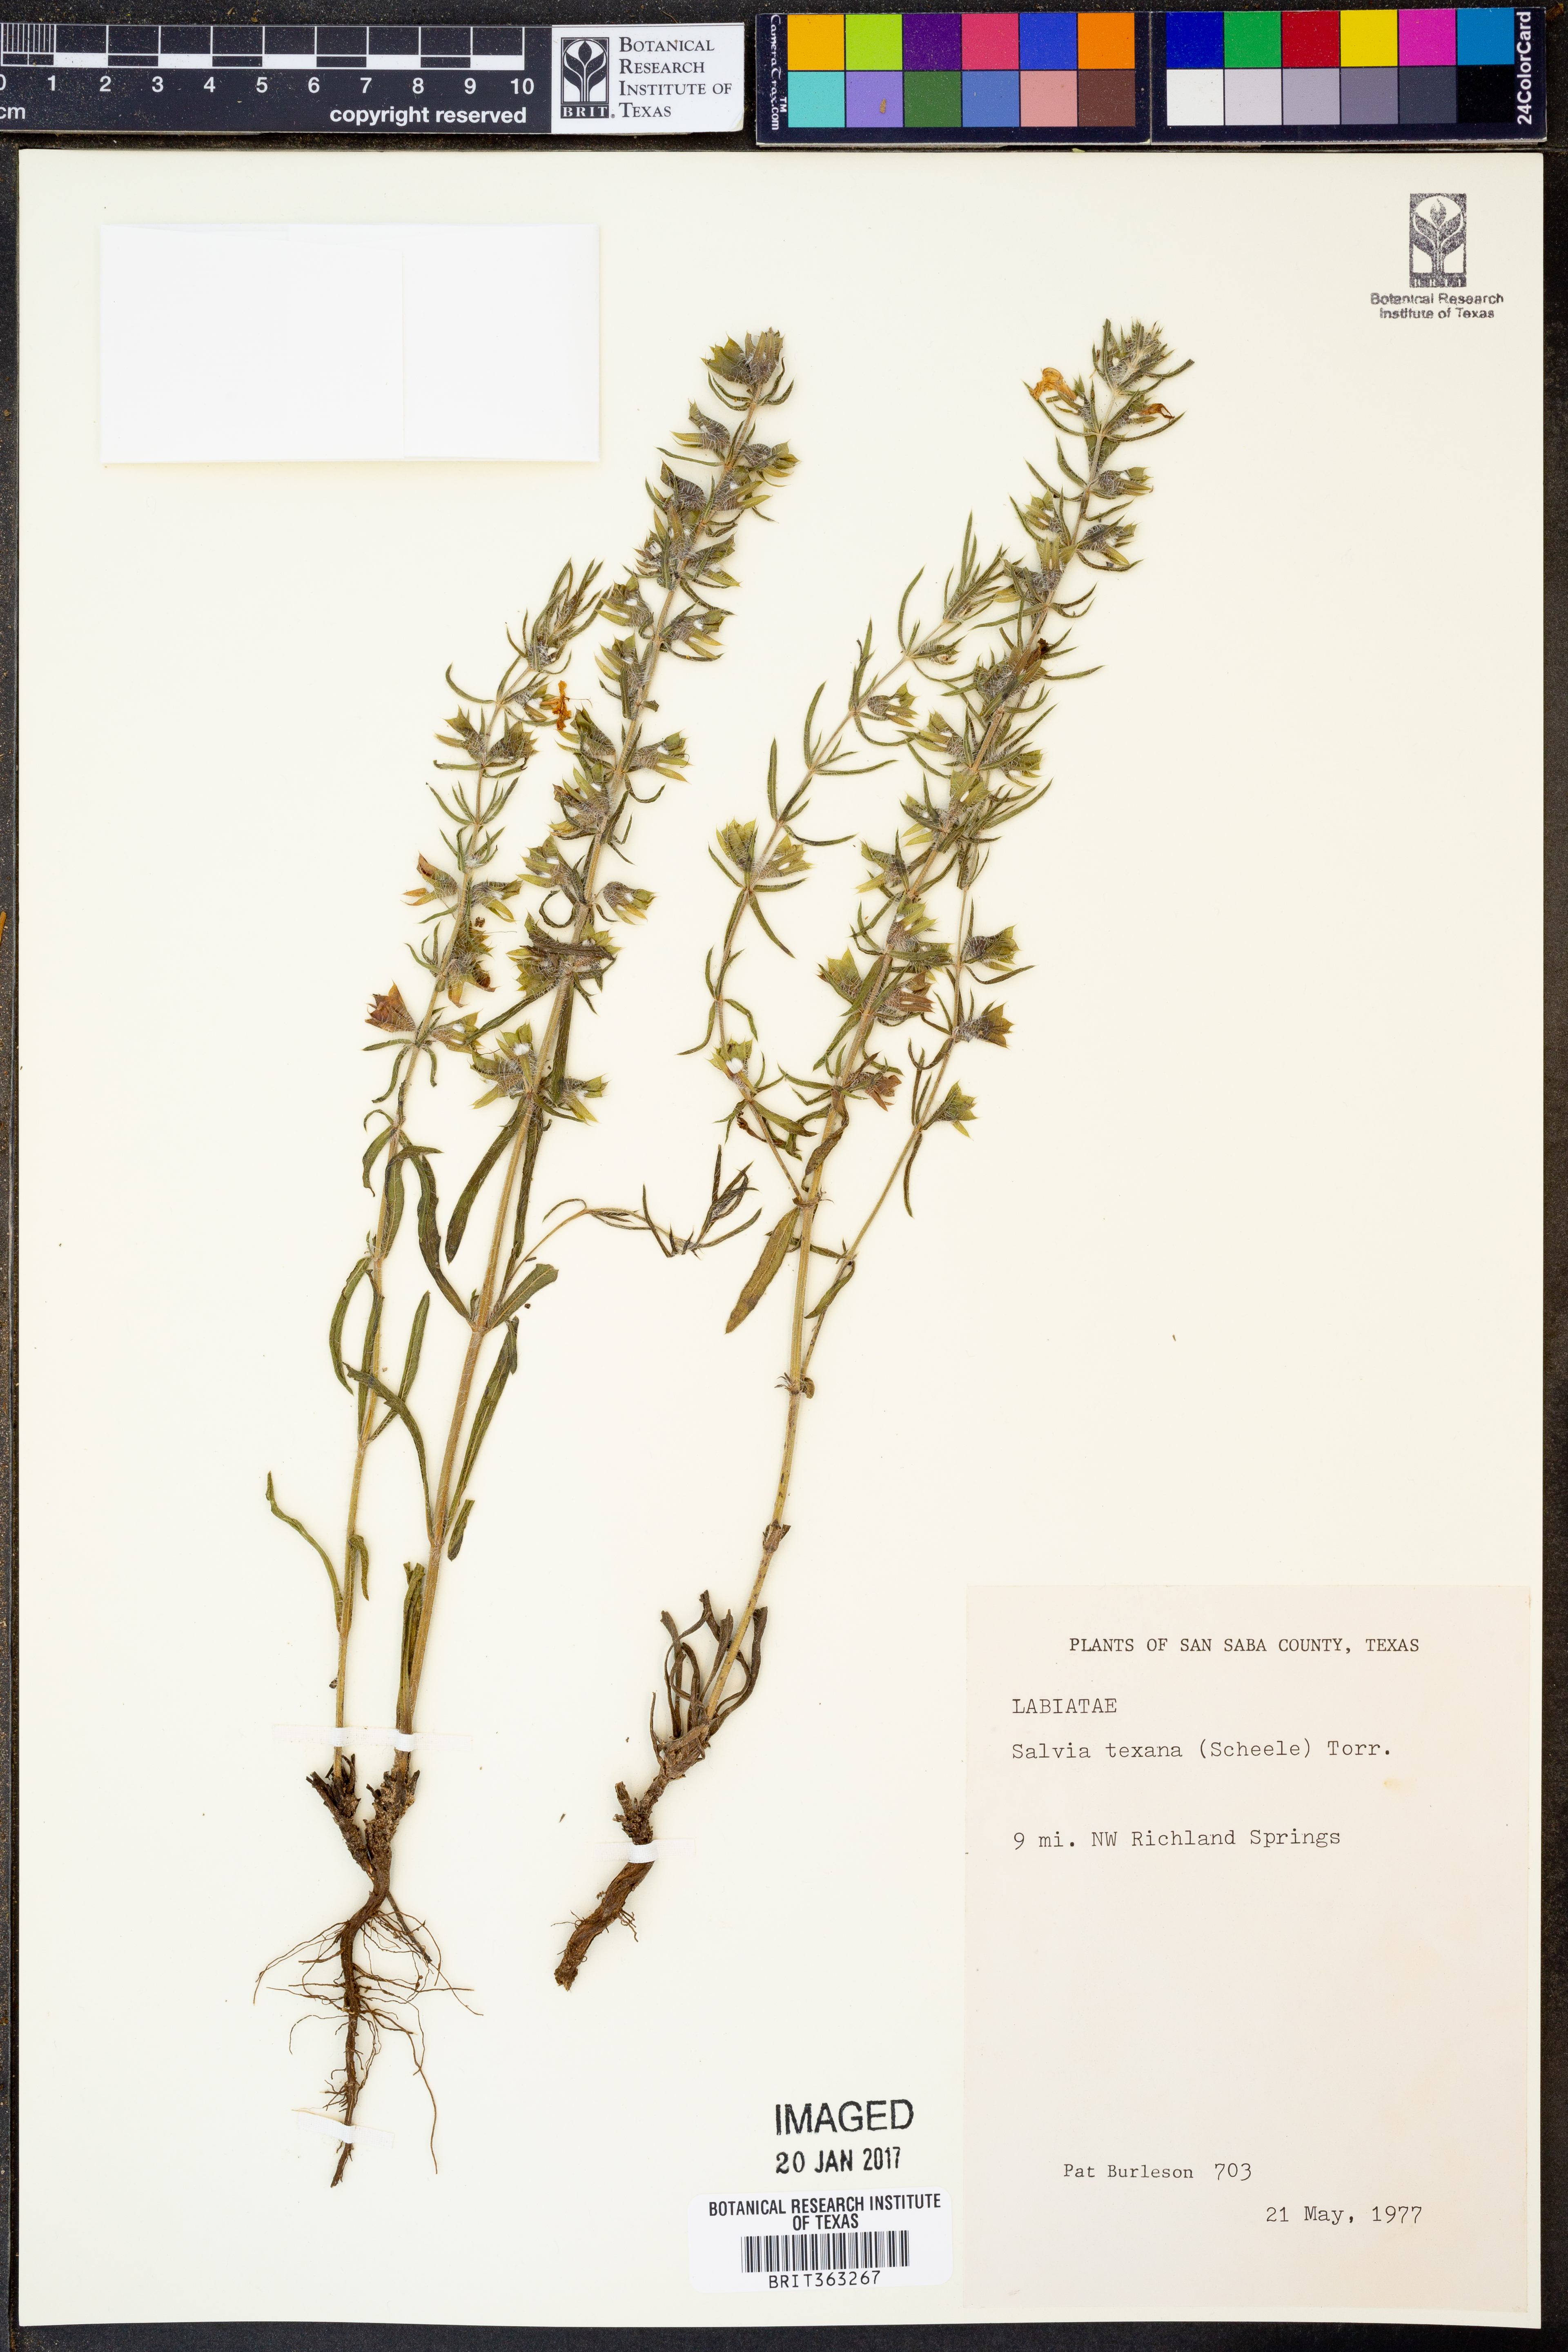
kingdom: Plantae
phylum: Tracheophyta
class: Magnoliopsida
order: Lamiales
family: Lamiaceae
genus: Salvia
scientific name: Salvia texana
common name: Texas sage
